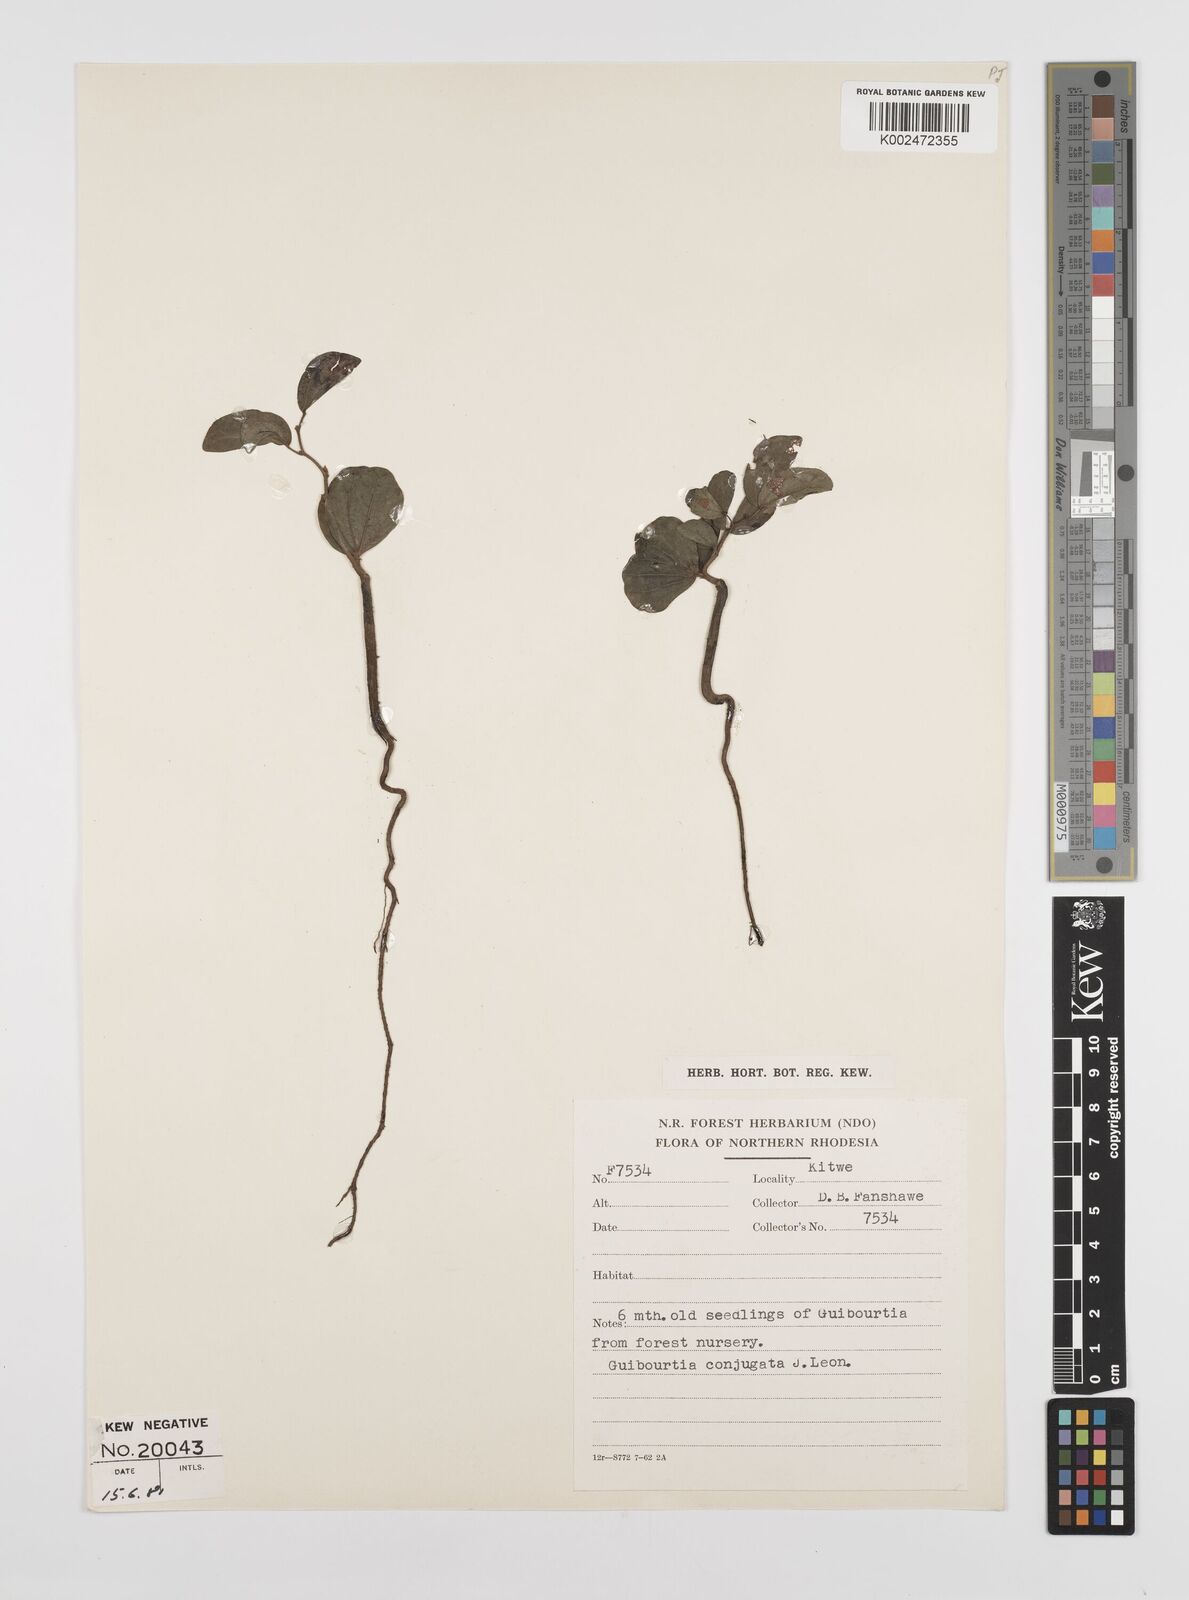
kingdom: Plantae
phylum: Tracheophyta
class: Magnoliopsida
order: Fabales
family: Fabaceae
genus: Guibourtia
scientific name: Guibourtia conjugata
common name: Small bastard mopane
